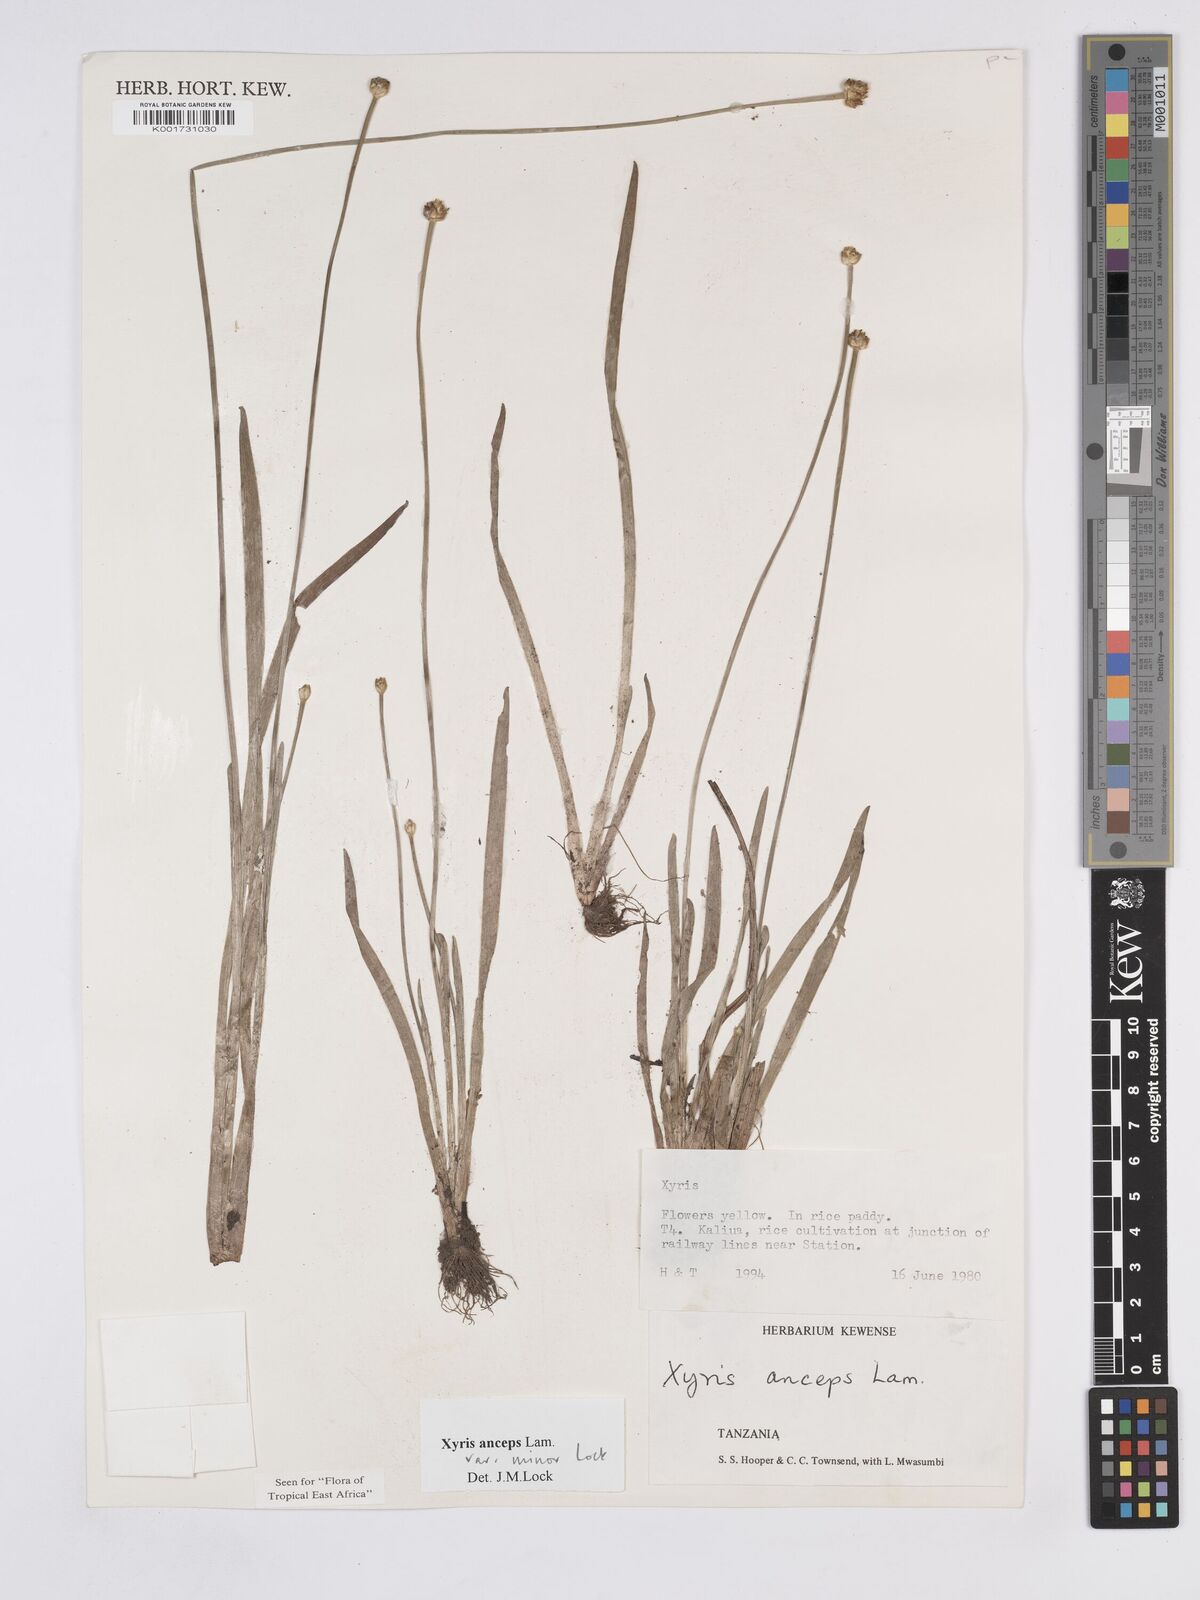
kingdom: Plantae
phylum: Tracheophyta
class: Liliopsida
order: Poales
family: Xyridaceae
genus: Xyris
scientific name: Xyris anceps
